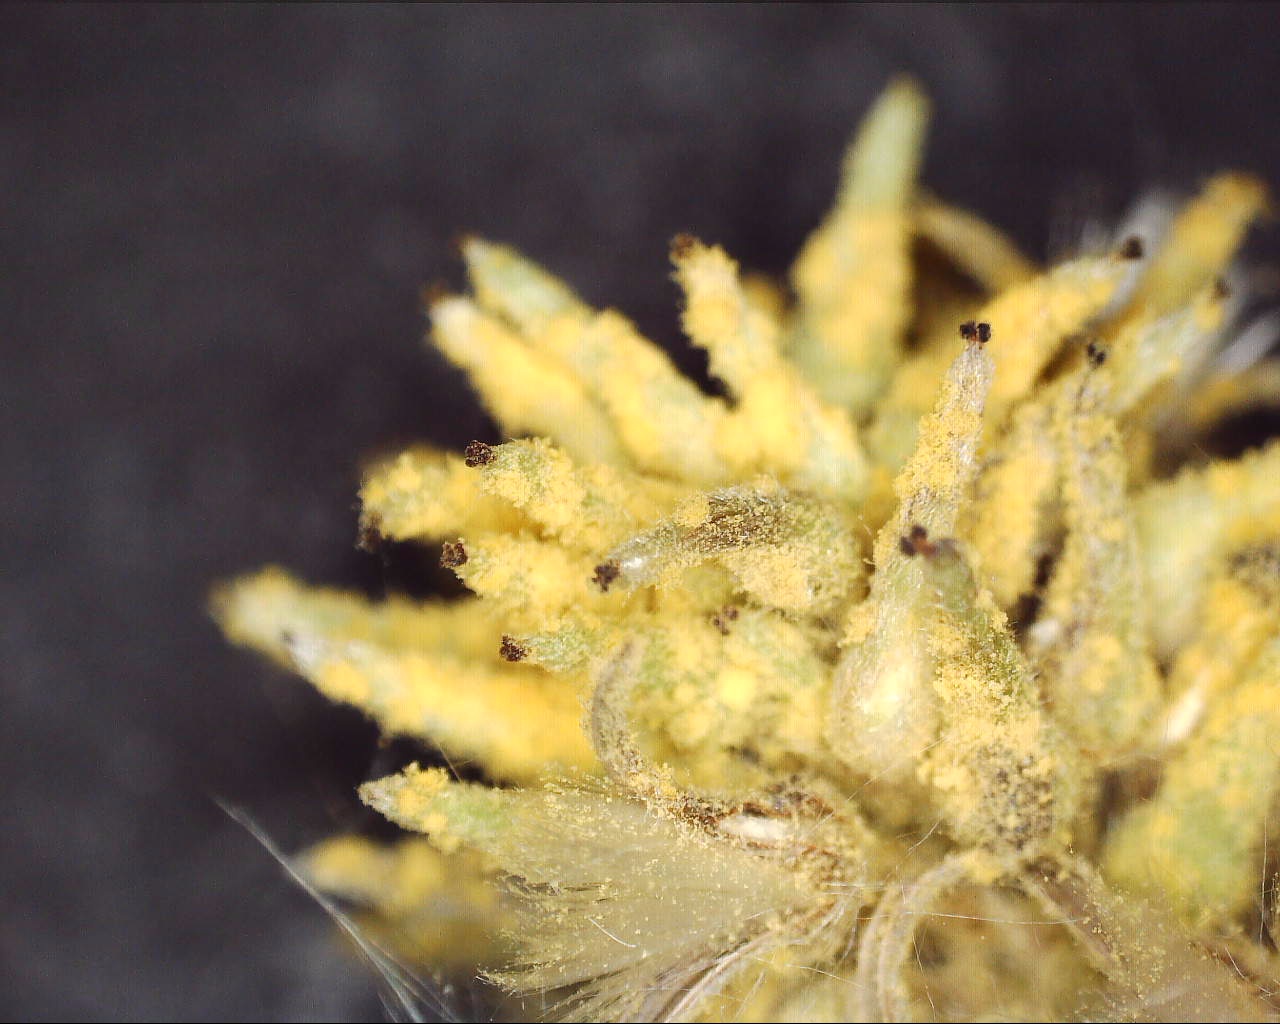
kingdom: Fungi
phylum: Basidiomycota
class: Pucciniomycetes
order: Pucciniales
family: Melampsoraceae
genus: Melampsora
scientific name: Melampsora epitea
